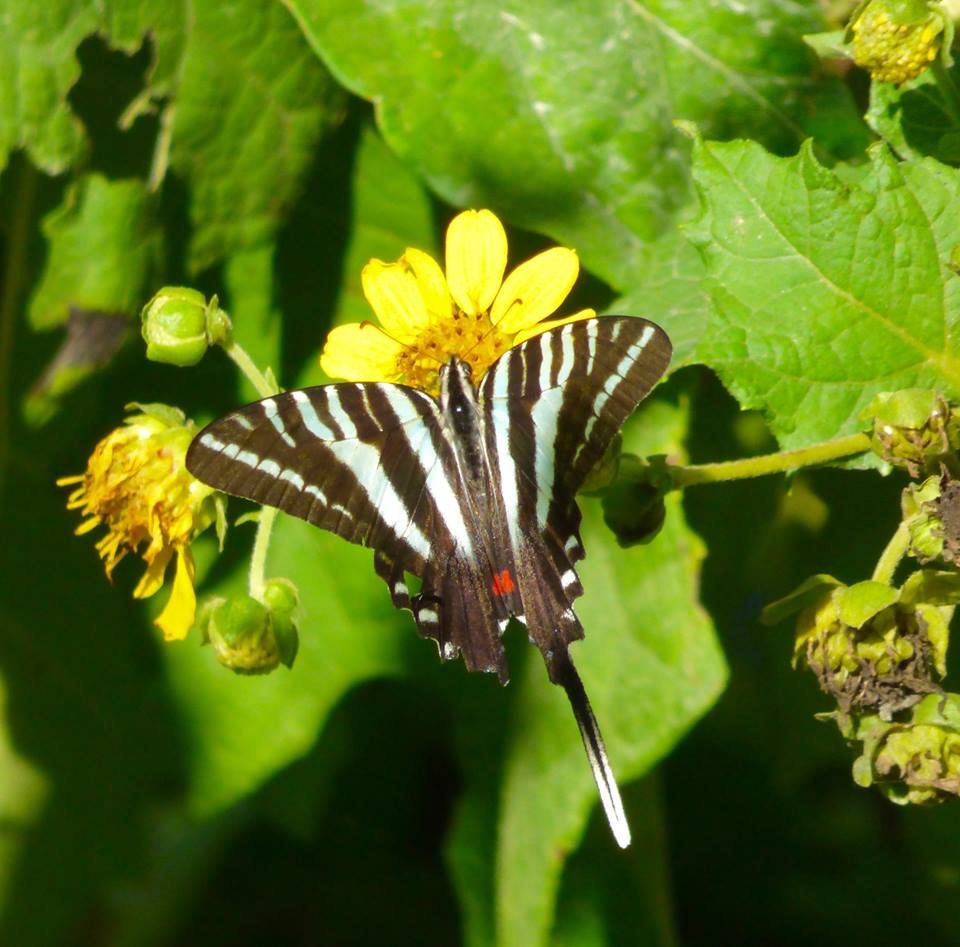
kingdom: Animalia
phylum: Arthropoda
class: Insecta
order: Lepidoptera
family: Papilionidae
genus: Protographium
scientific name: Protographium marcellus
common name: Zebra Swallowtail
